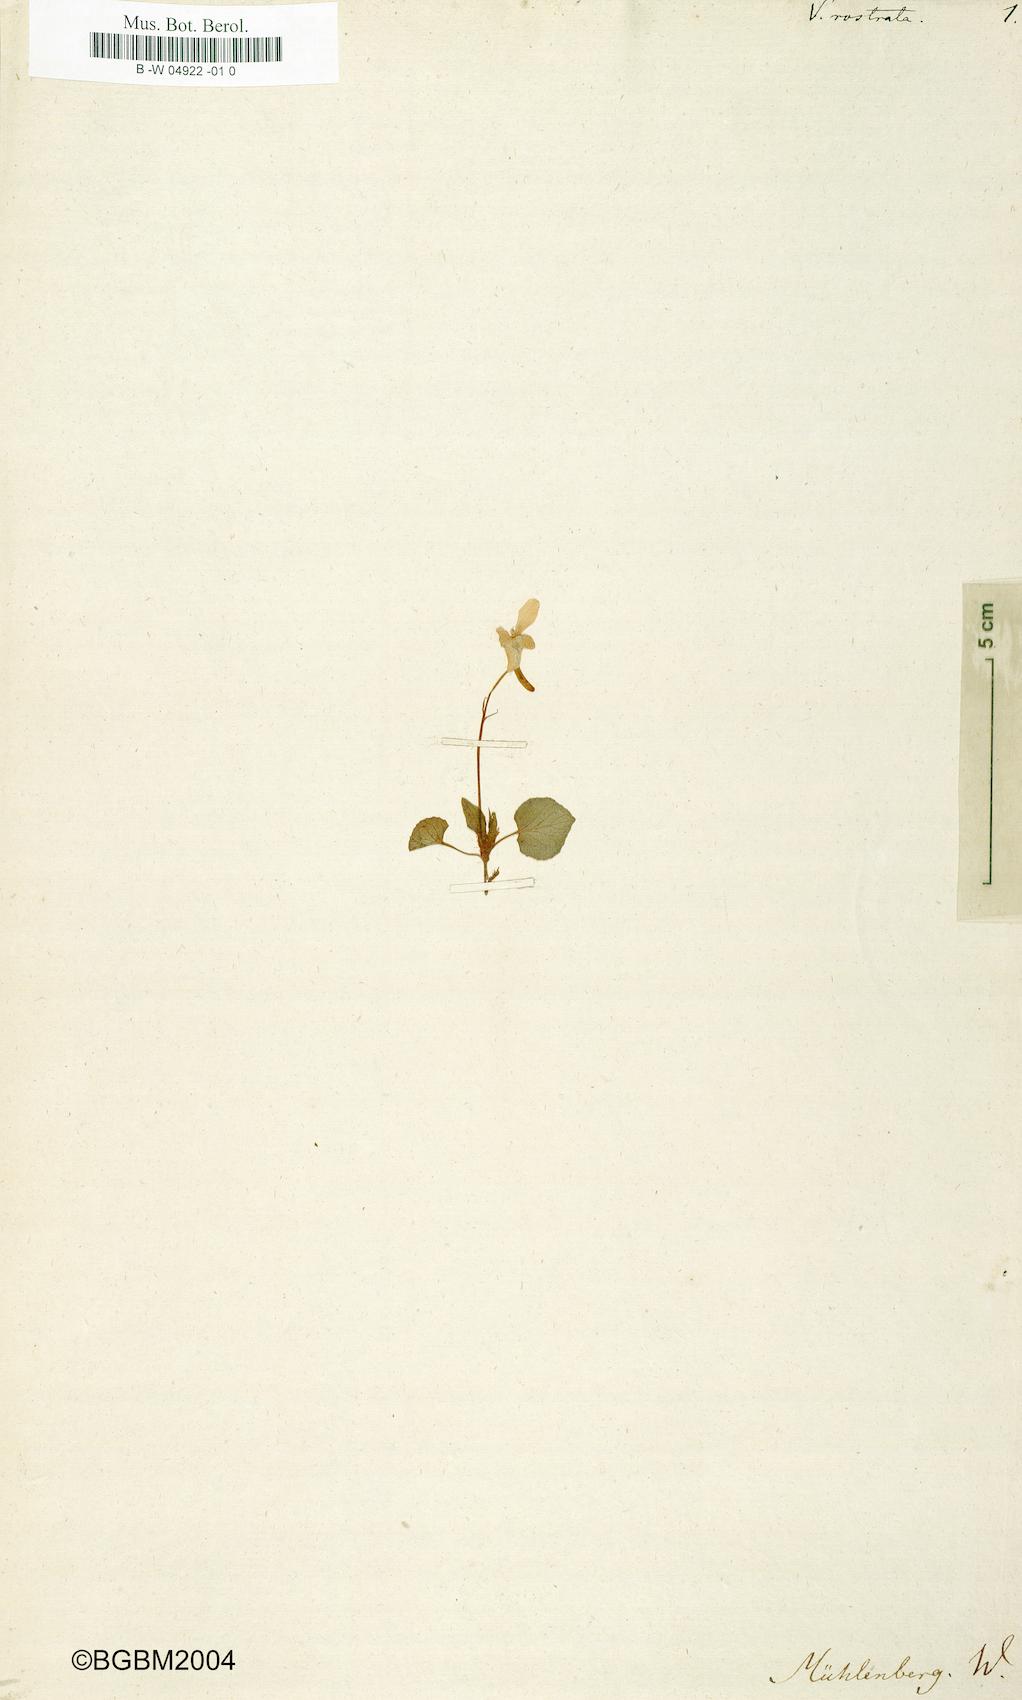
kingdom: Plantae
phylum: Tracheophyta
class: Magnoliopsida
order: Malpighiales
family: Violaceae
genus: Viola
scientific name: Viola rostrata
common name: Long-spur violet
